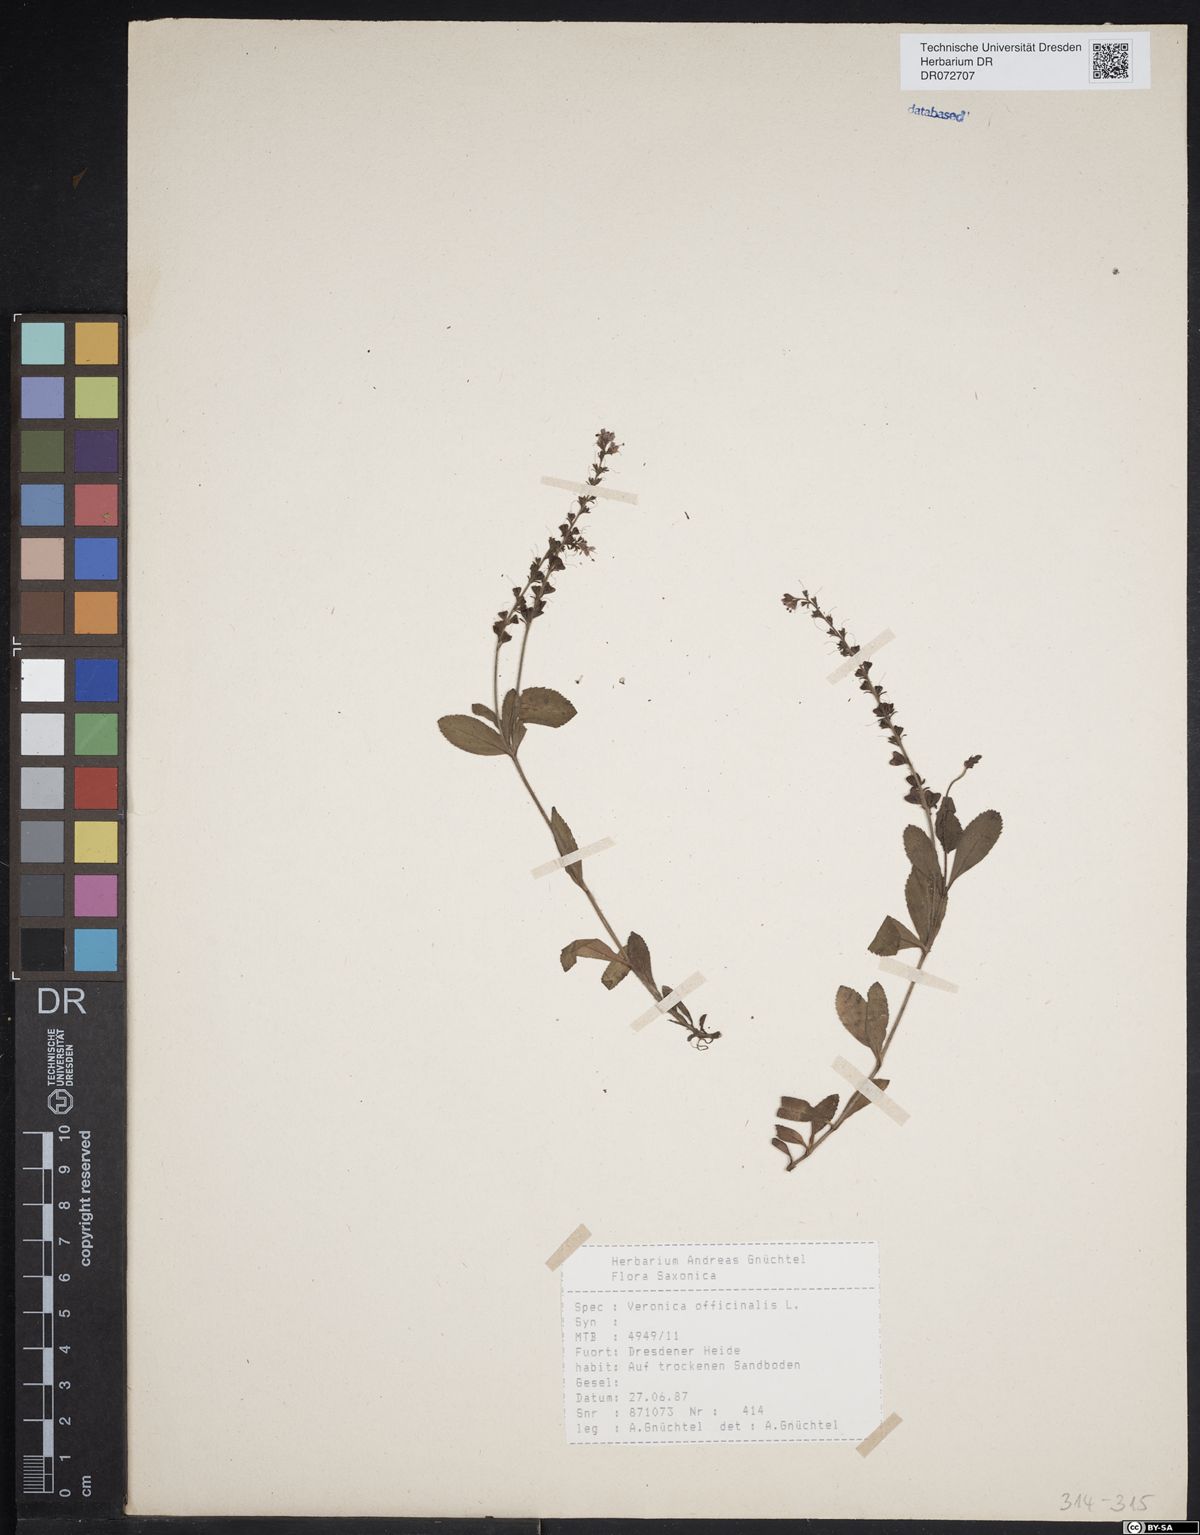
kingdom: Plantae
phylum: Tracheophyta
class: Magnoliopsida
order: Lamiales
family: Plantaginaceae
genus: Veronica
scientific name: Veronica officinalis
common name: Common speedwell
